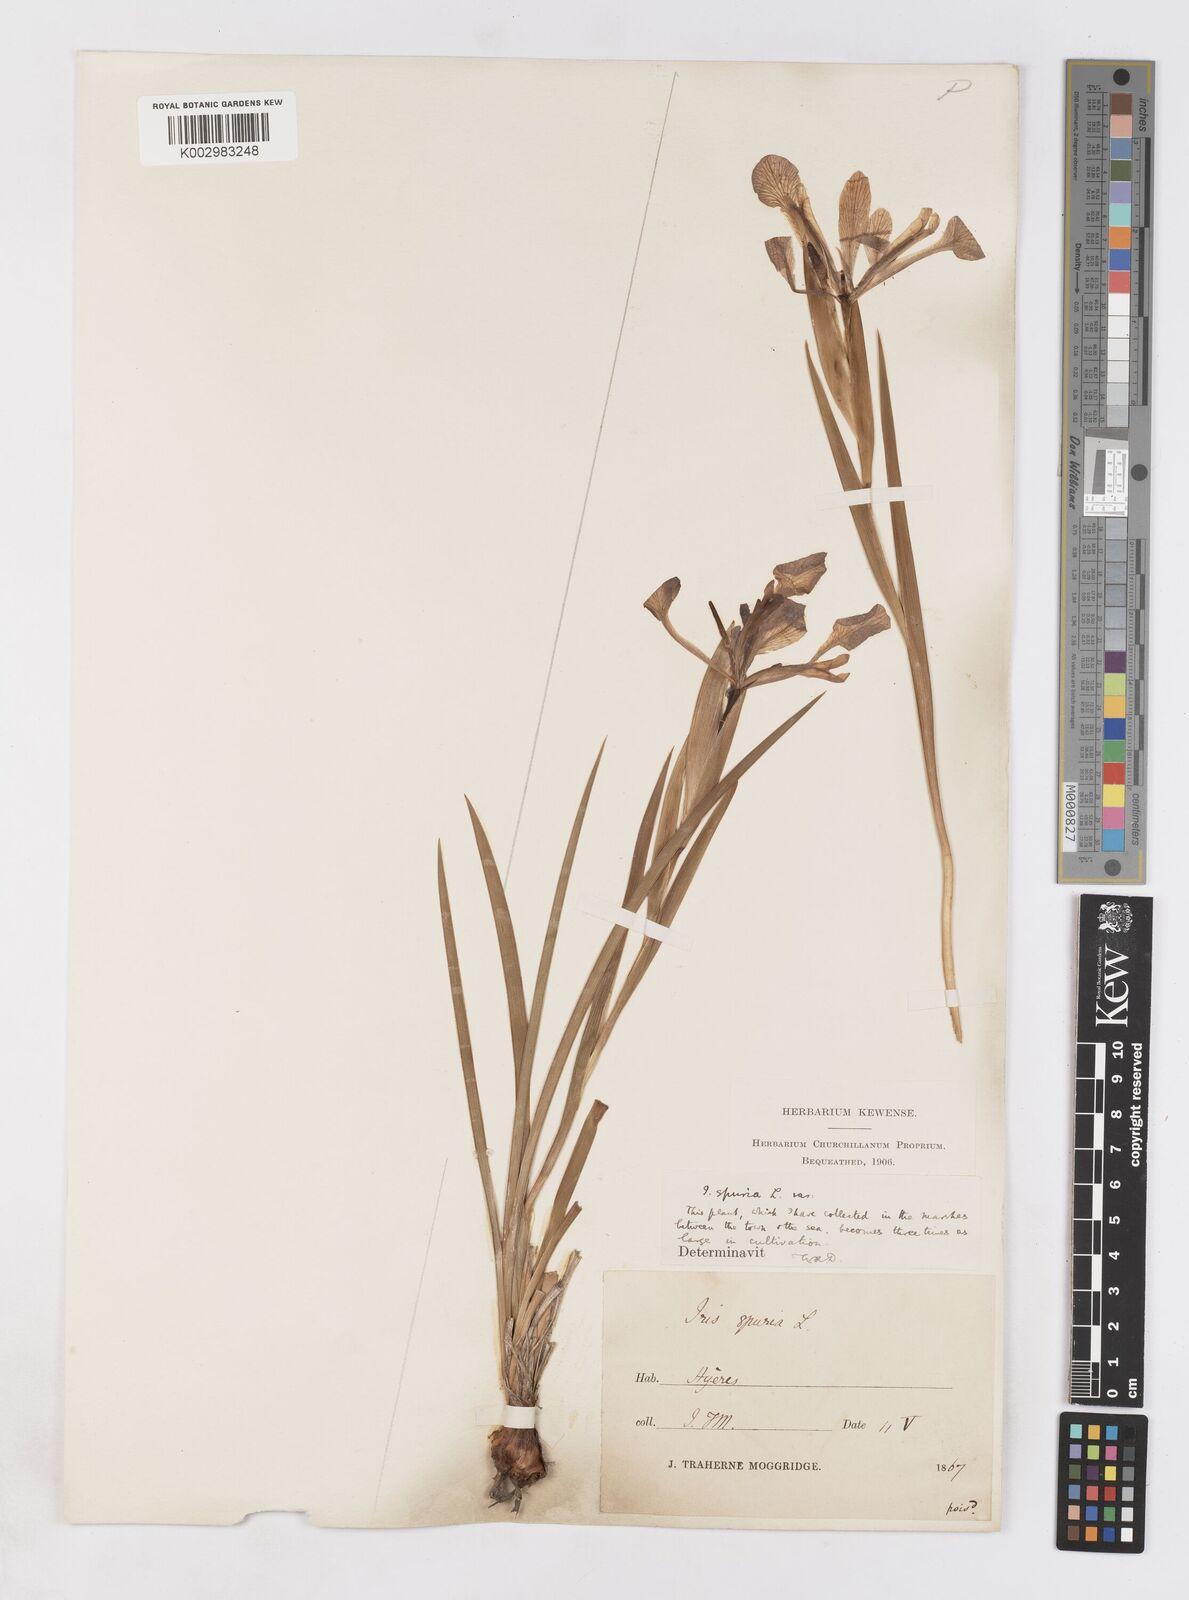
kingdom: Plantae
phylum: Tracheophyta
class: Liliopsida
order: Asparagales
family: Iridaceae
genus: Iris
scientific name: Iris spuria
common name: Blue iris
